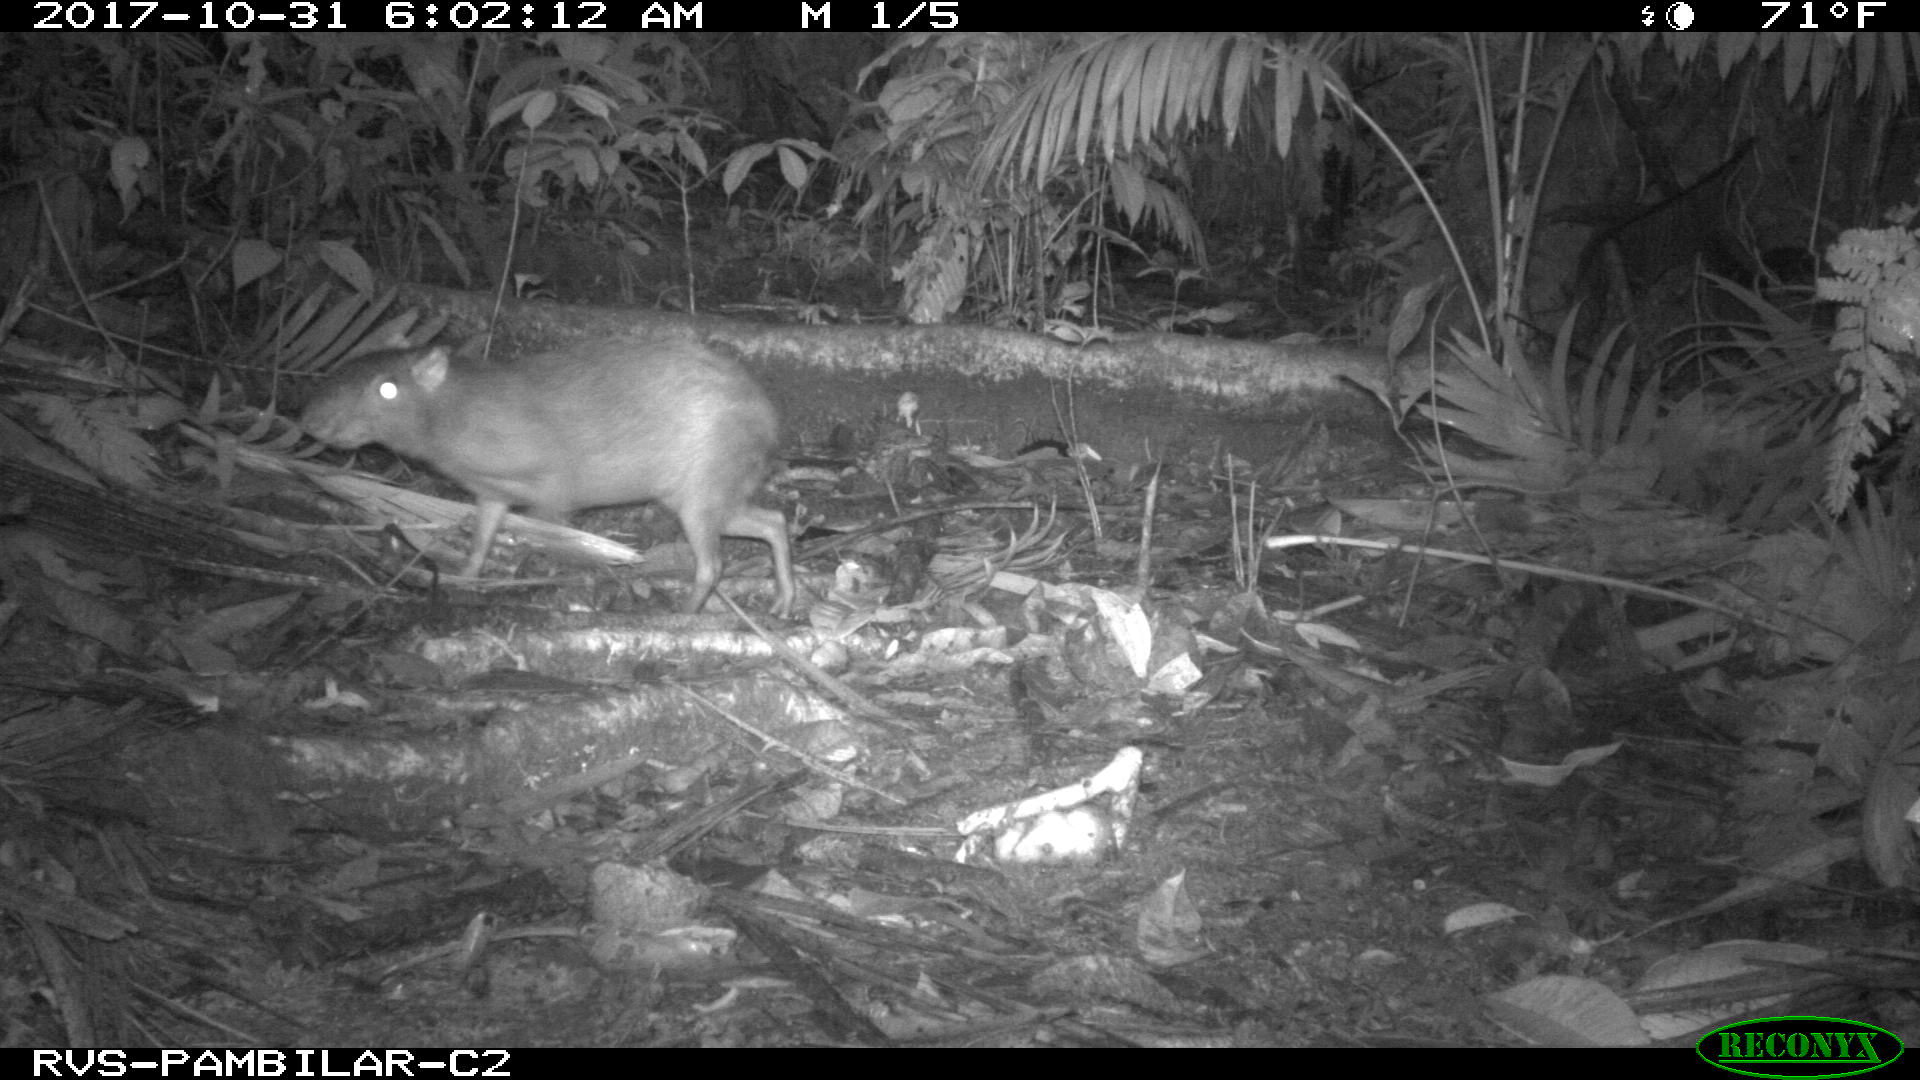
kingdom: Animalia
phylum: Chordata
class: Mammalia
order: Rodentia
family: Dasyproctidae
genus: Dasyprocta
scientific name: Dasyprocta punctata
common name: Central american agouti
